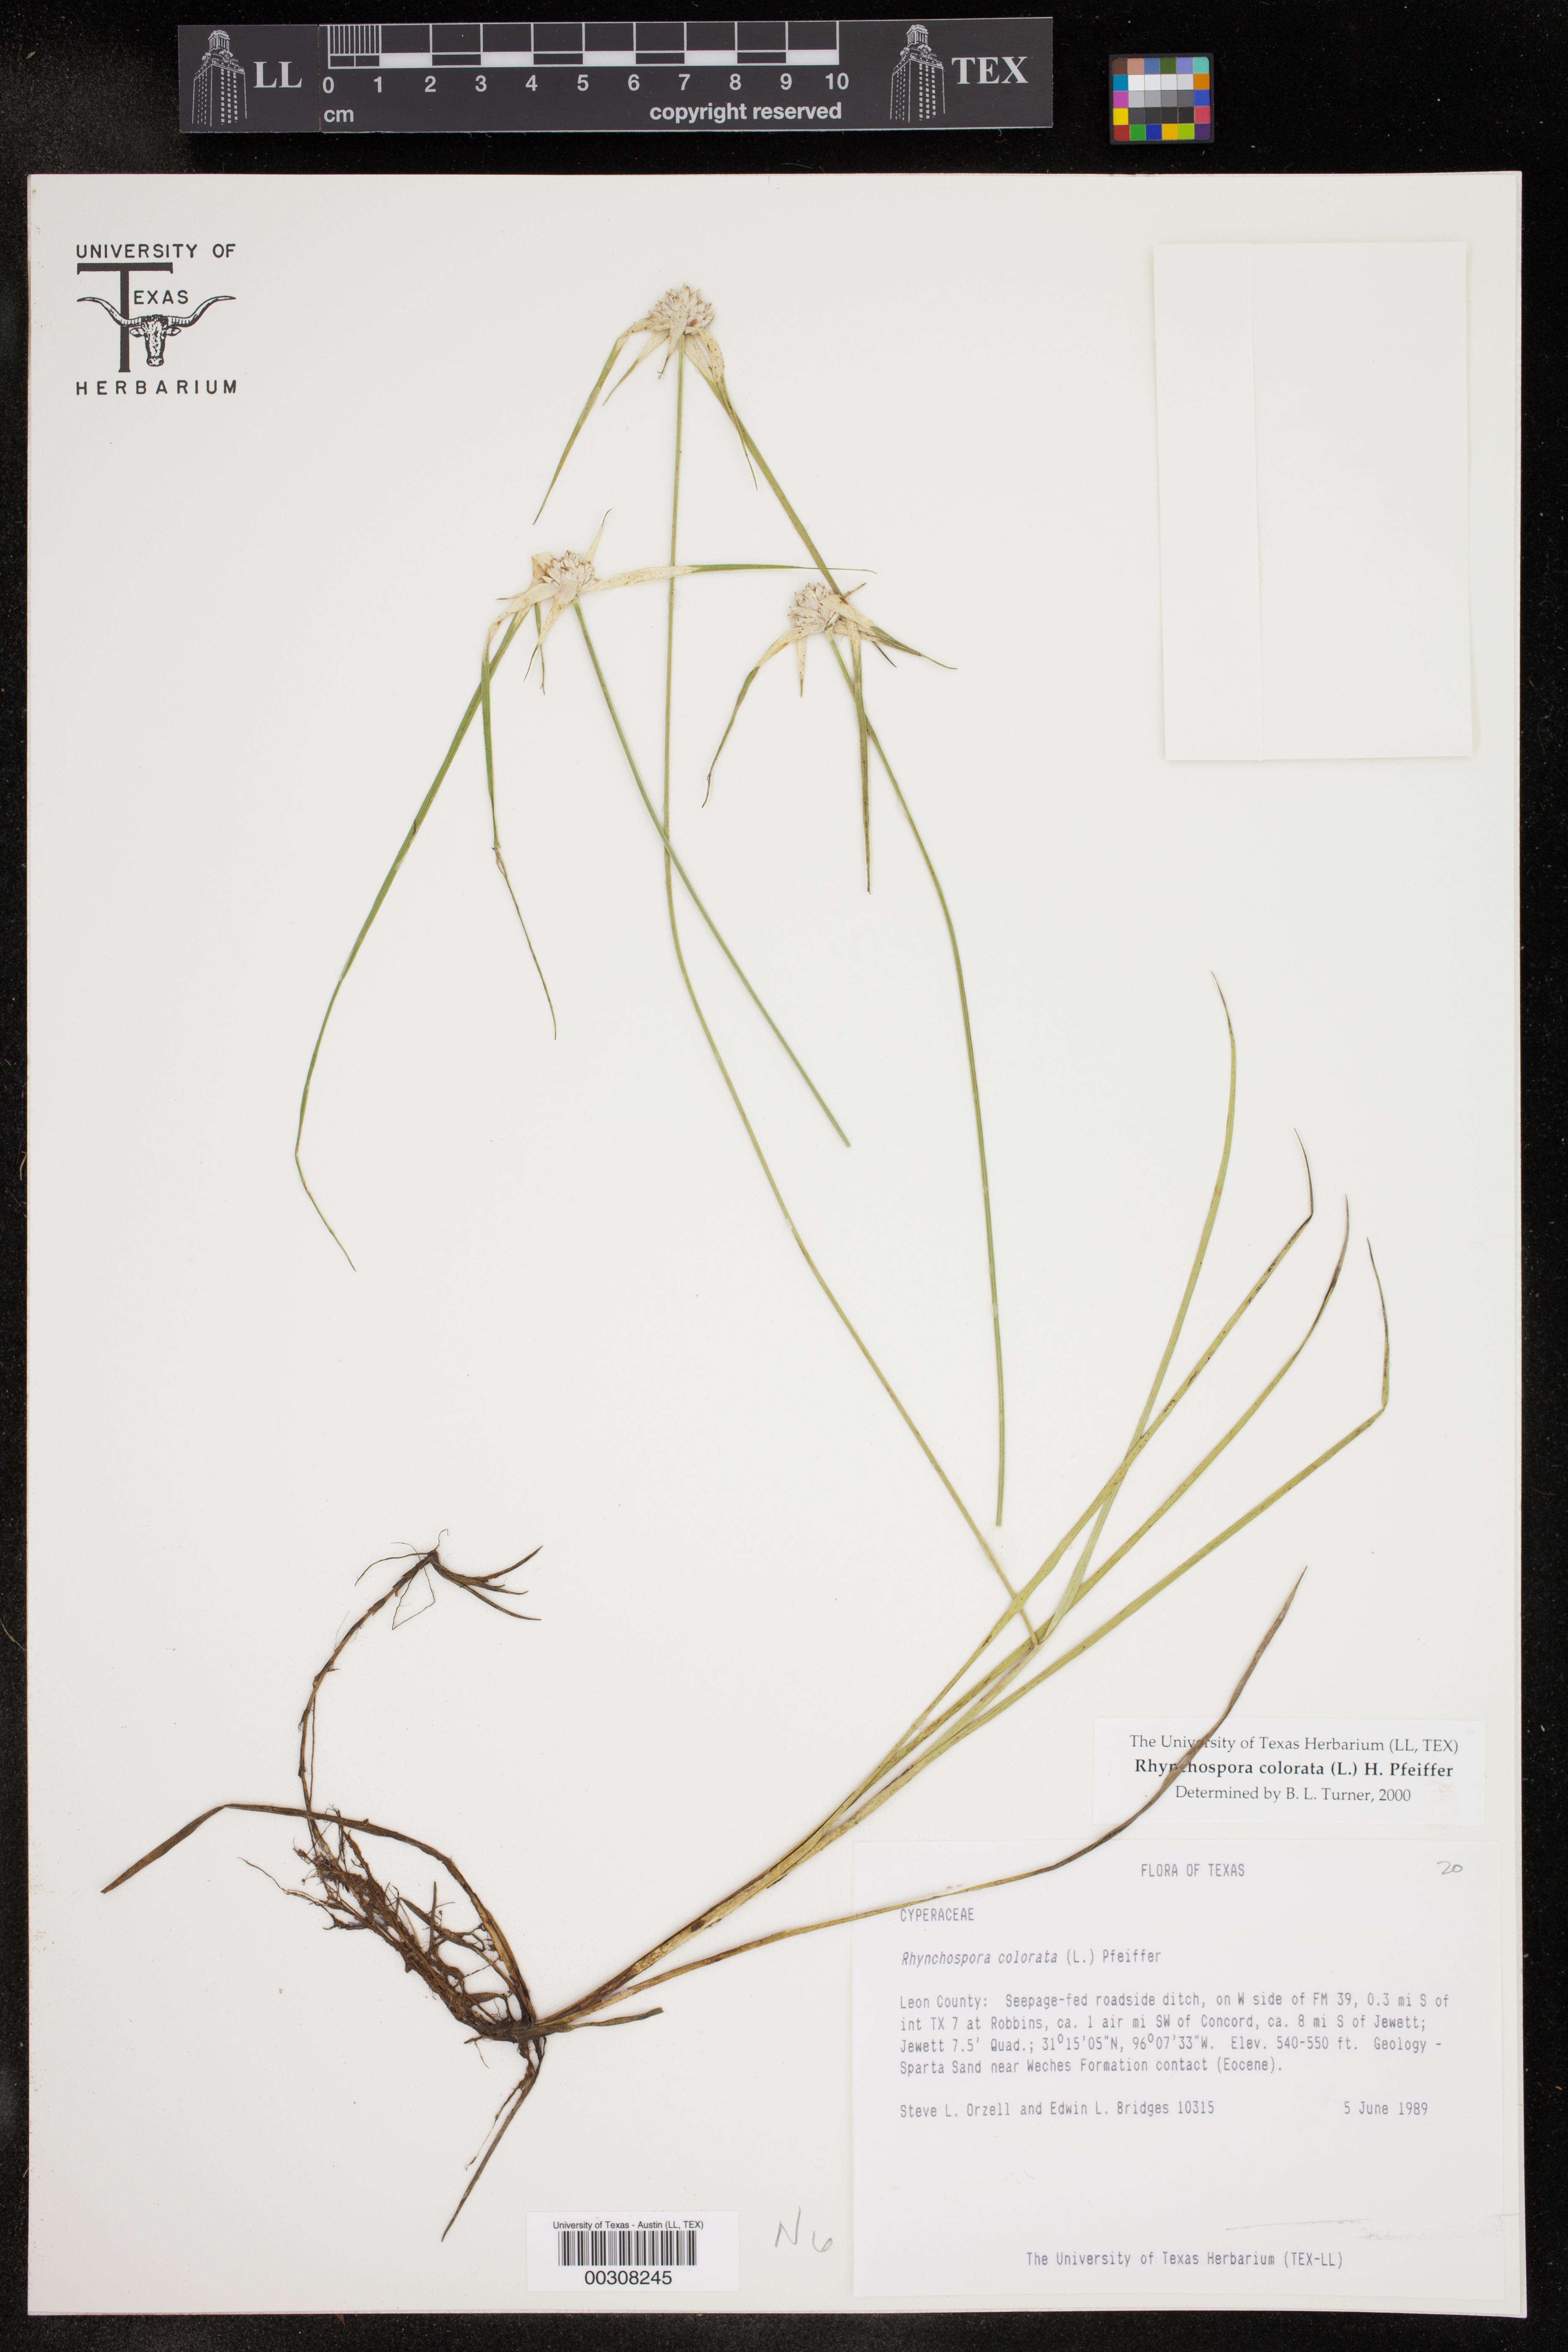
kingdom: Plantae
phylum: Tracheophyta
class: Liliopsida
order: Poales
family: Cyperaceae
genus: Rhynchospora
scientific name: Rhynchospora colorata
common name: Star sedge
